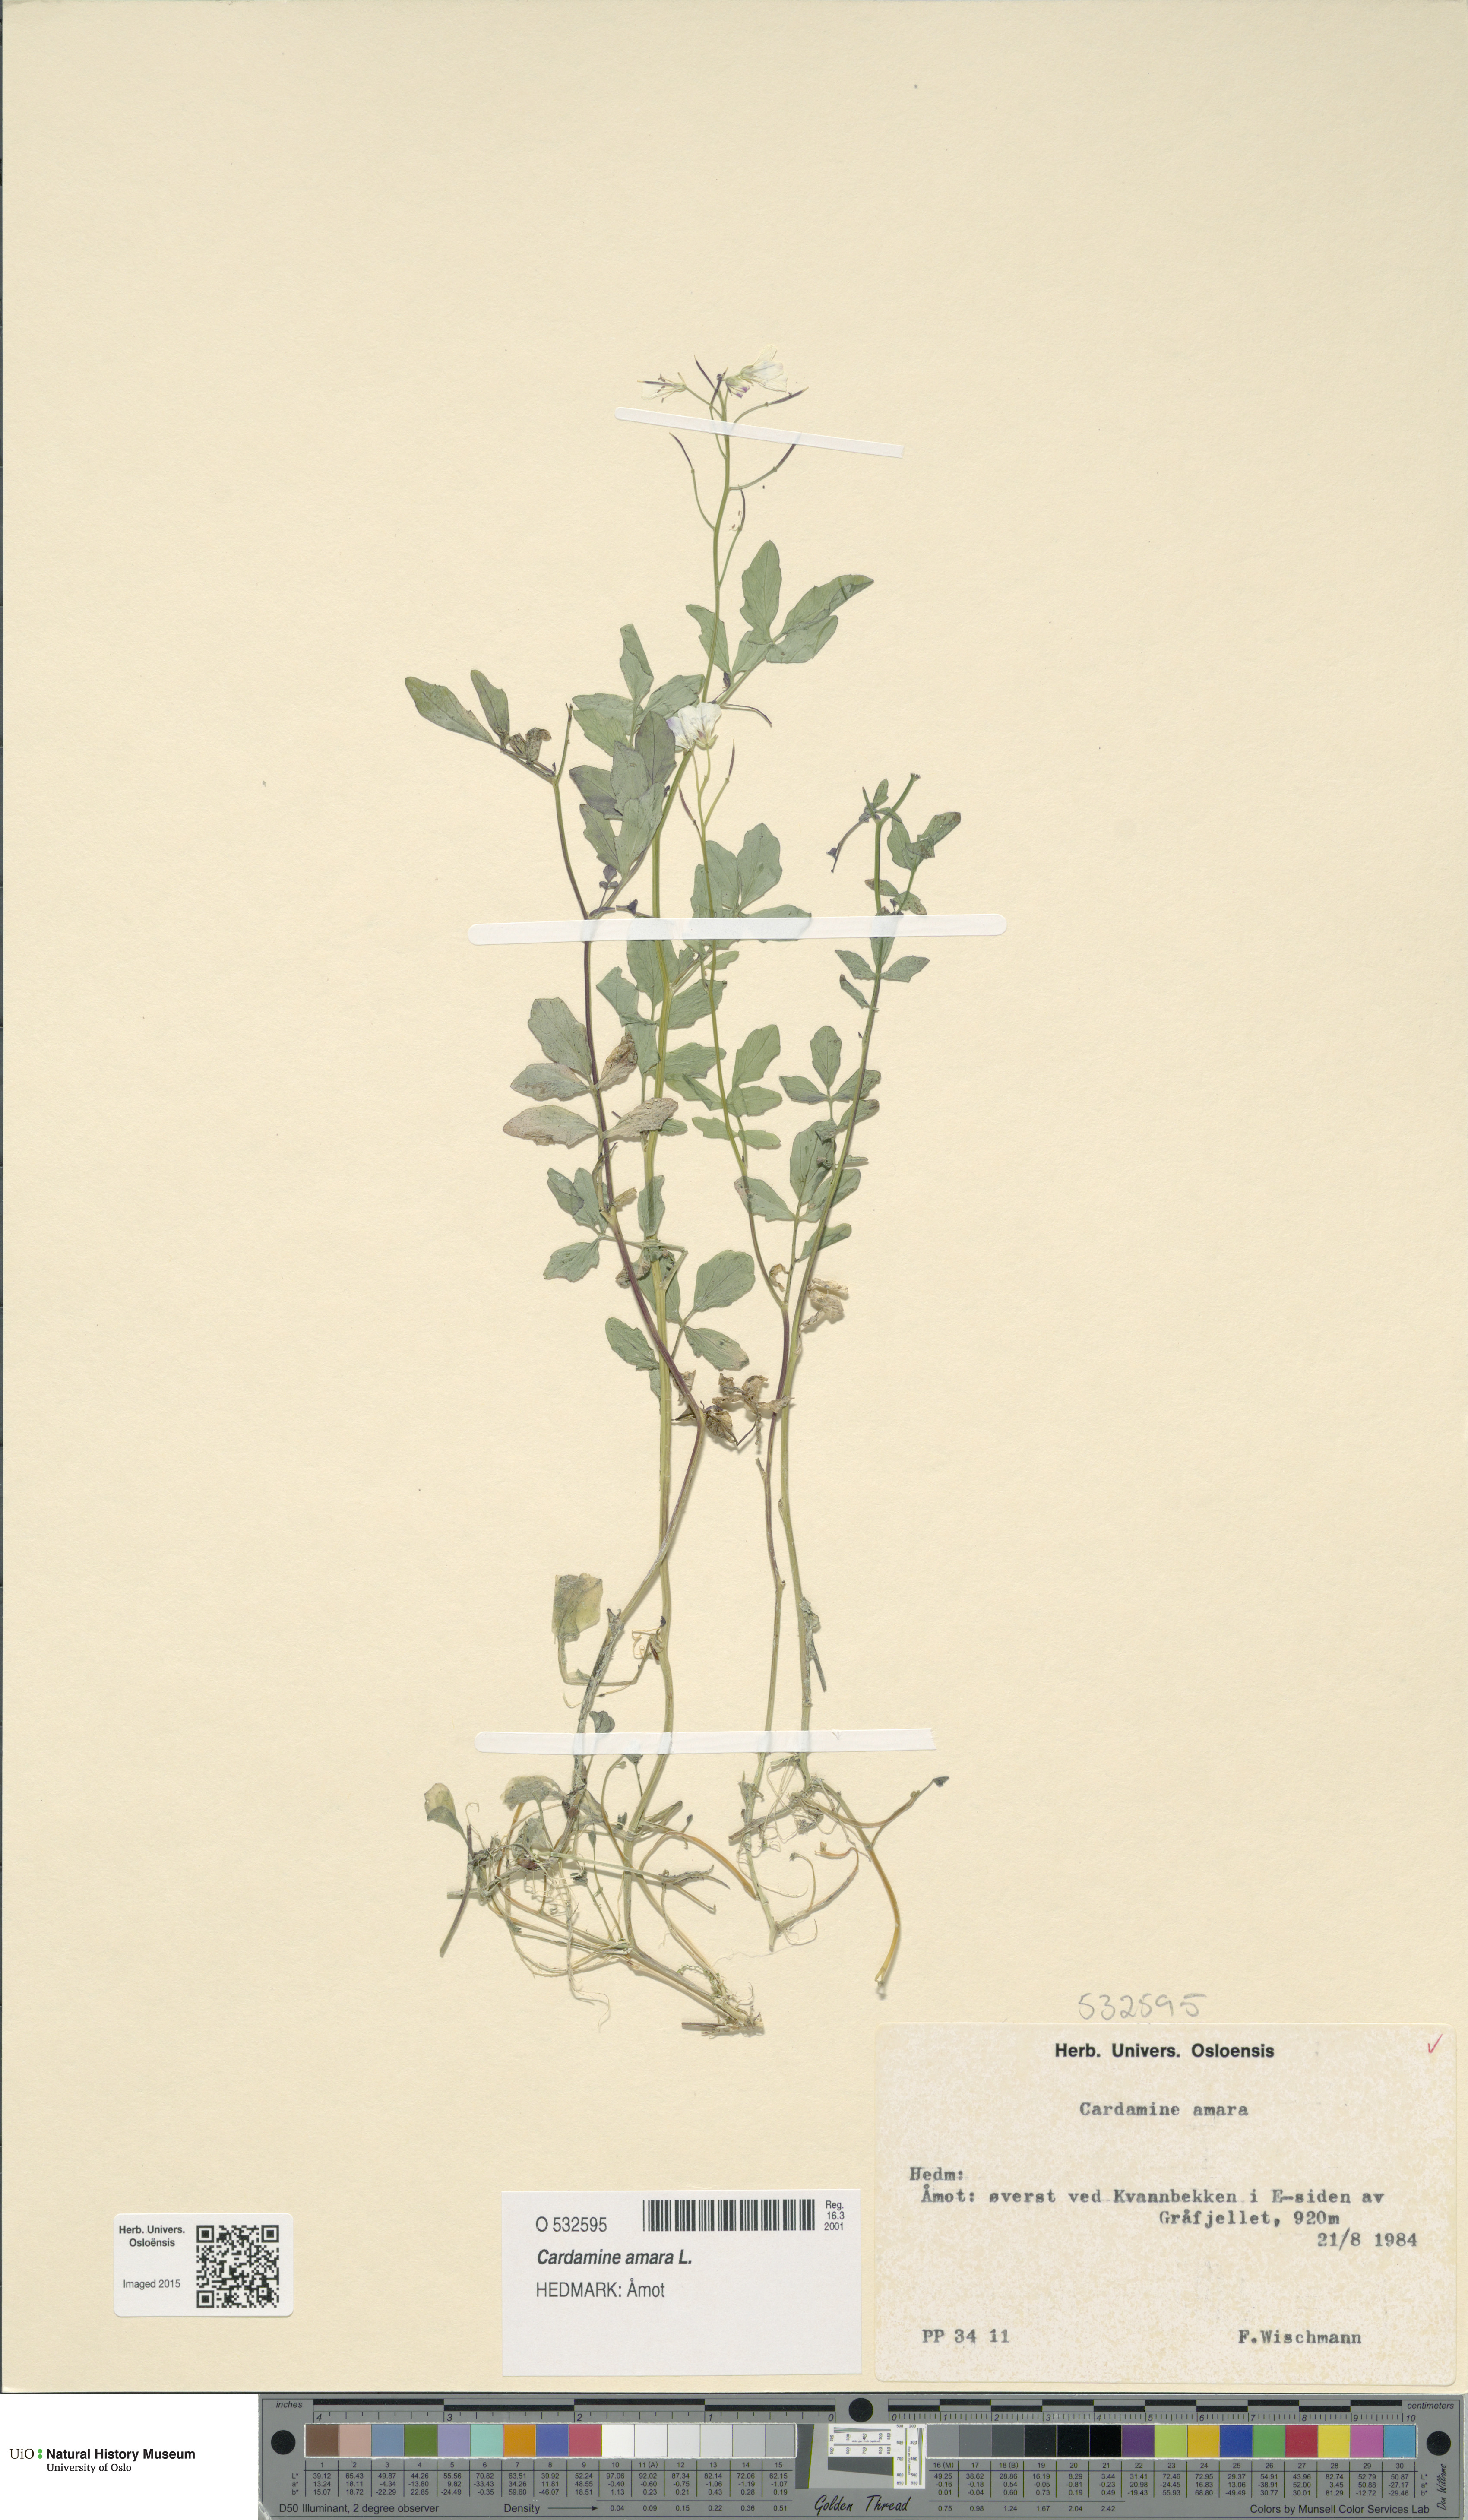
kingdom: Plantae
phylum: Tracheophyta
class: Magnoliopsida
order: Brassicales
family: Brassicaceae
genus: Cardamine
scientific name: Cardamine amara
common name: Large bitter-cress
